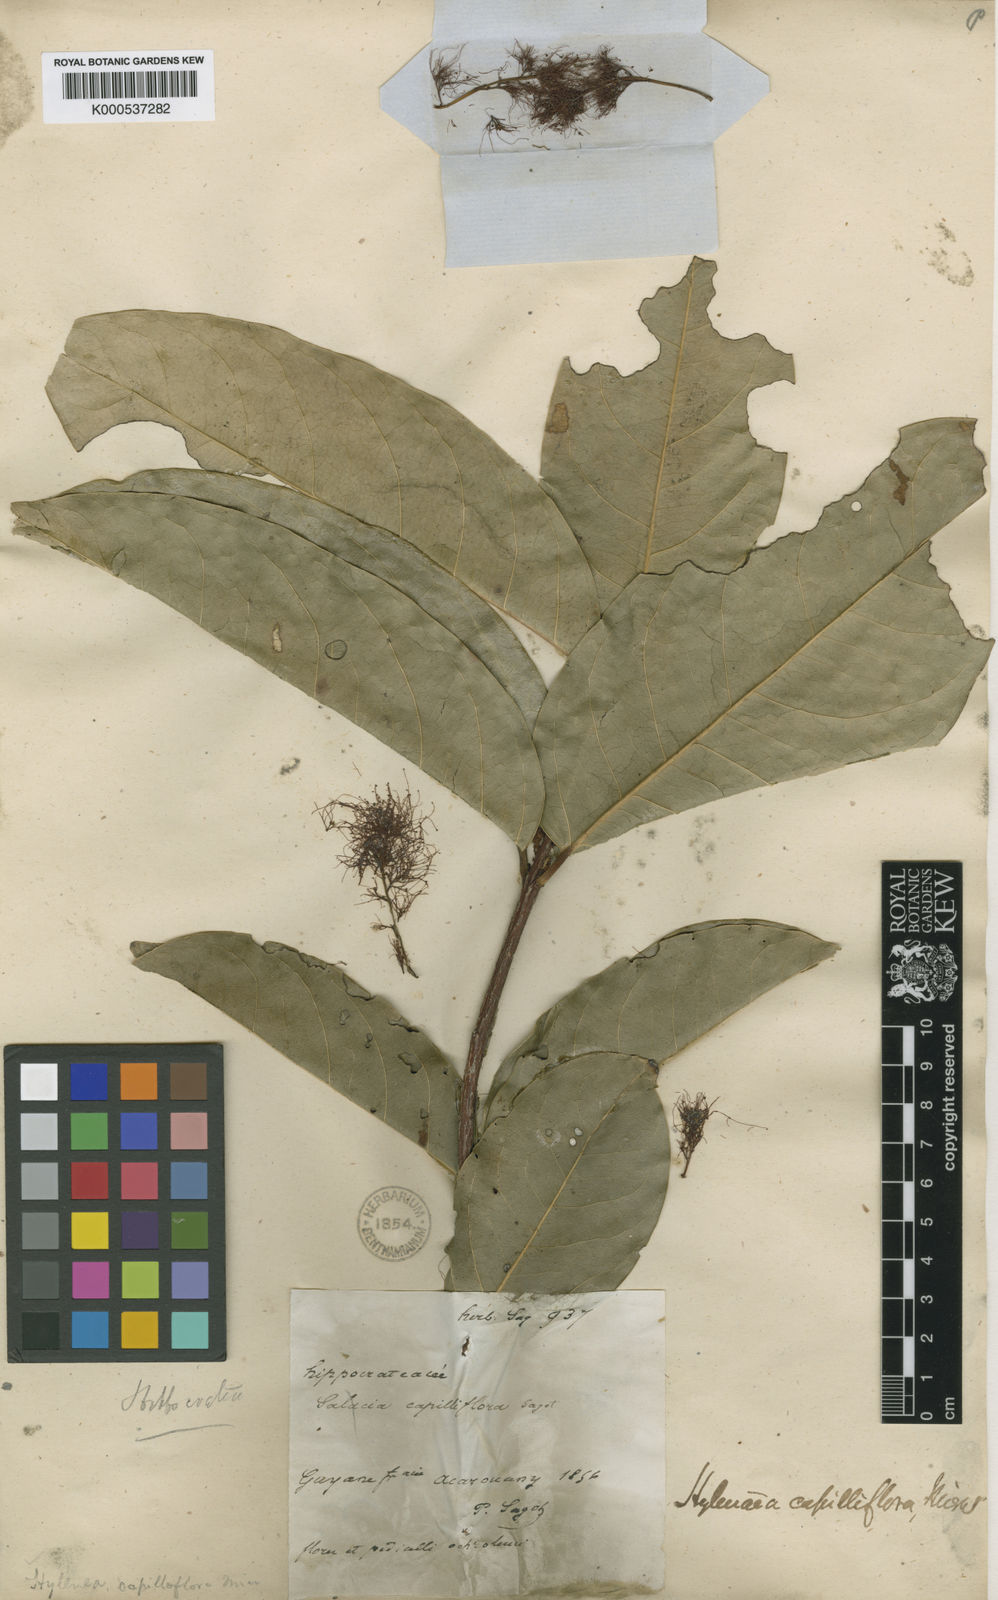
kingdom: Plantae
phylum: Tracheophyta
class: Magnoliopsida
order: Celastrales
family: Celastraceae
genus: Hylenaea
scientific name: Hylenaea comosa
